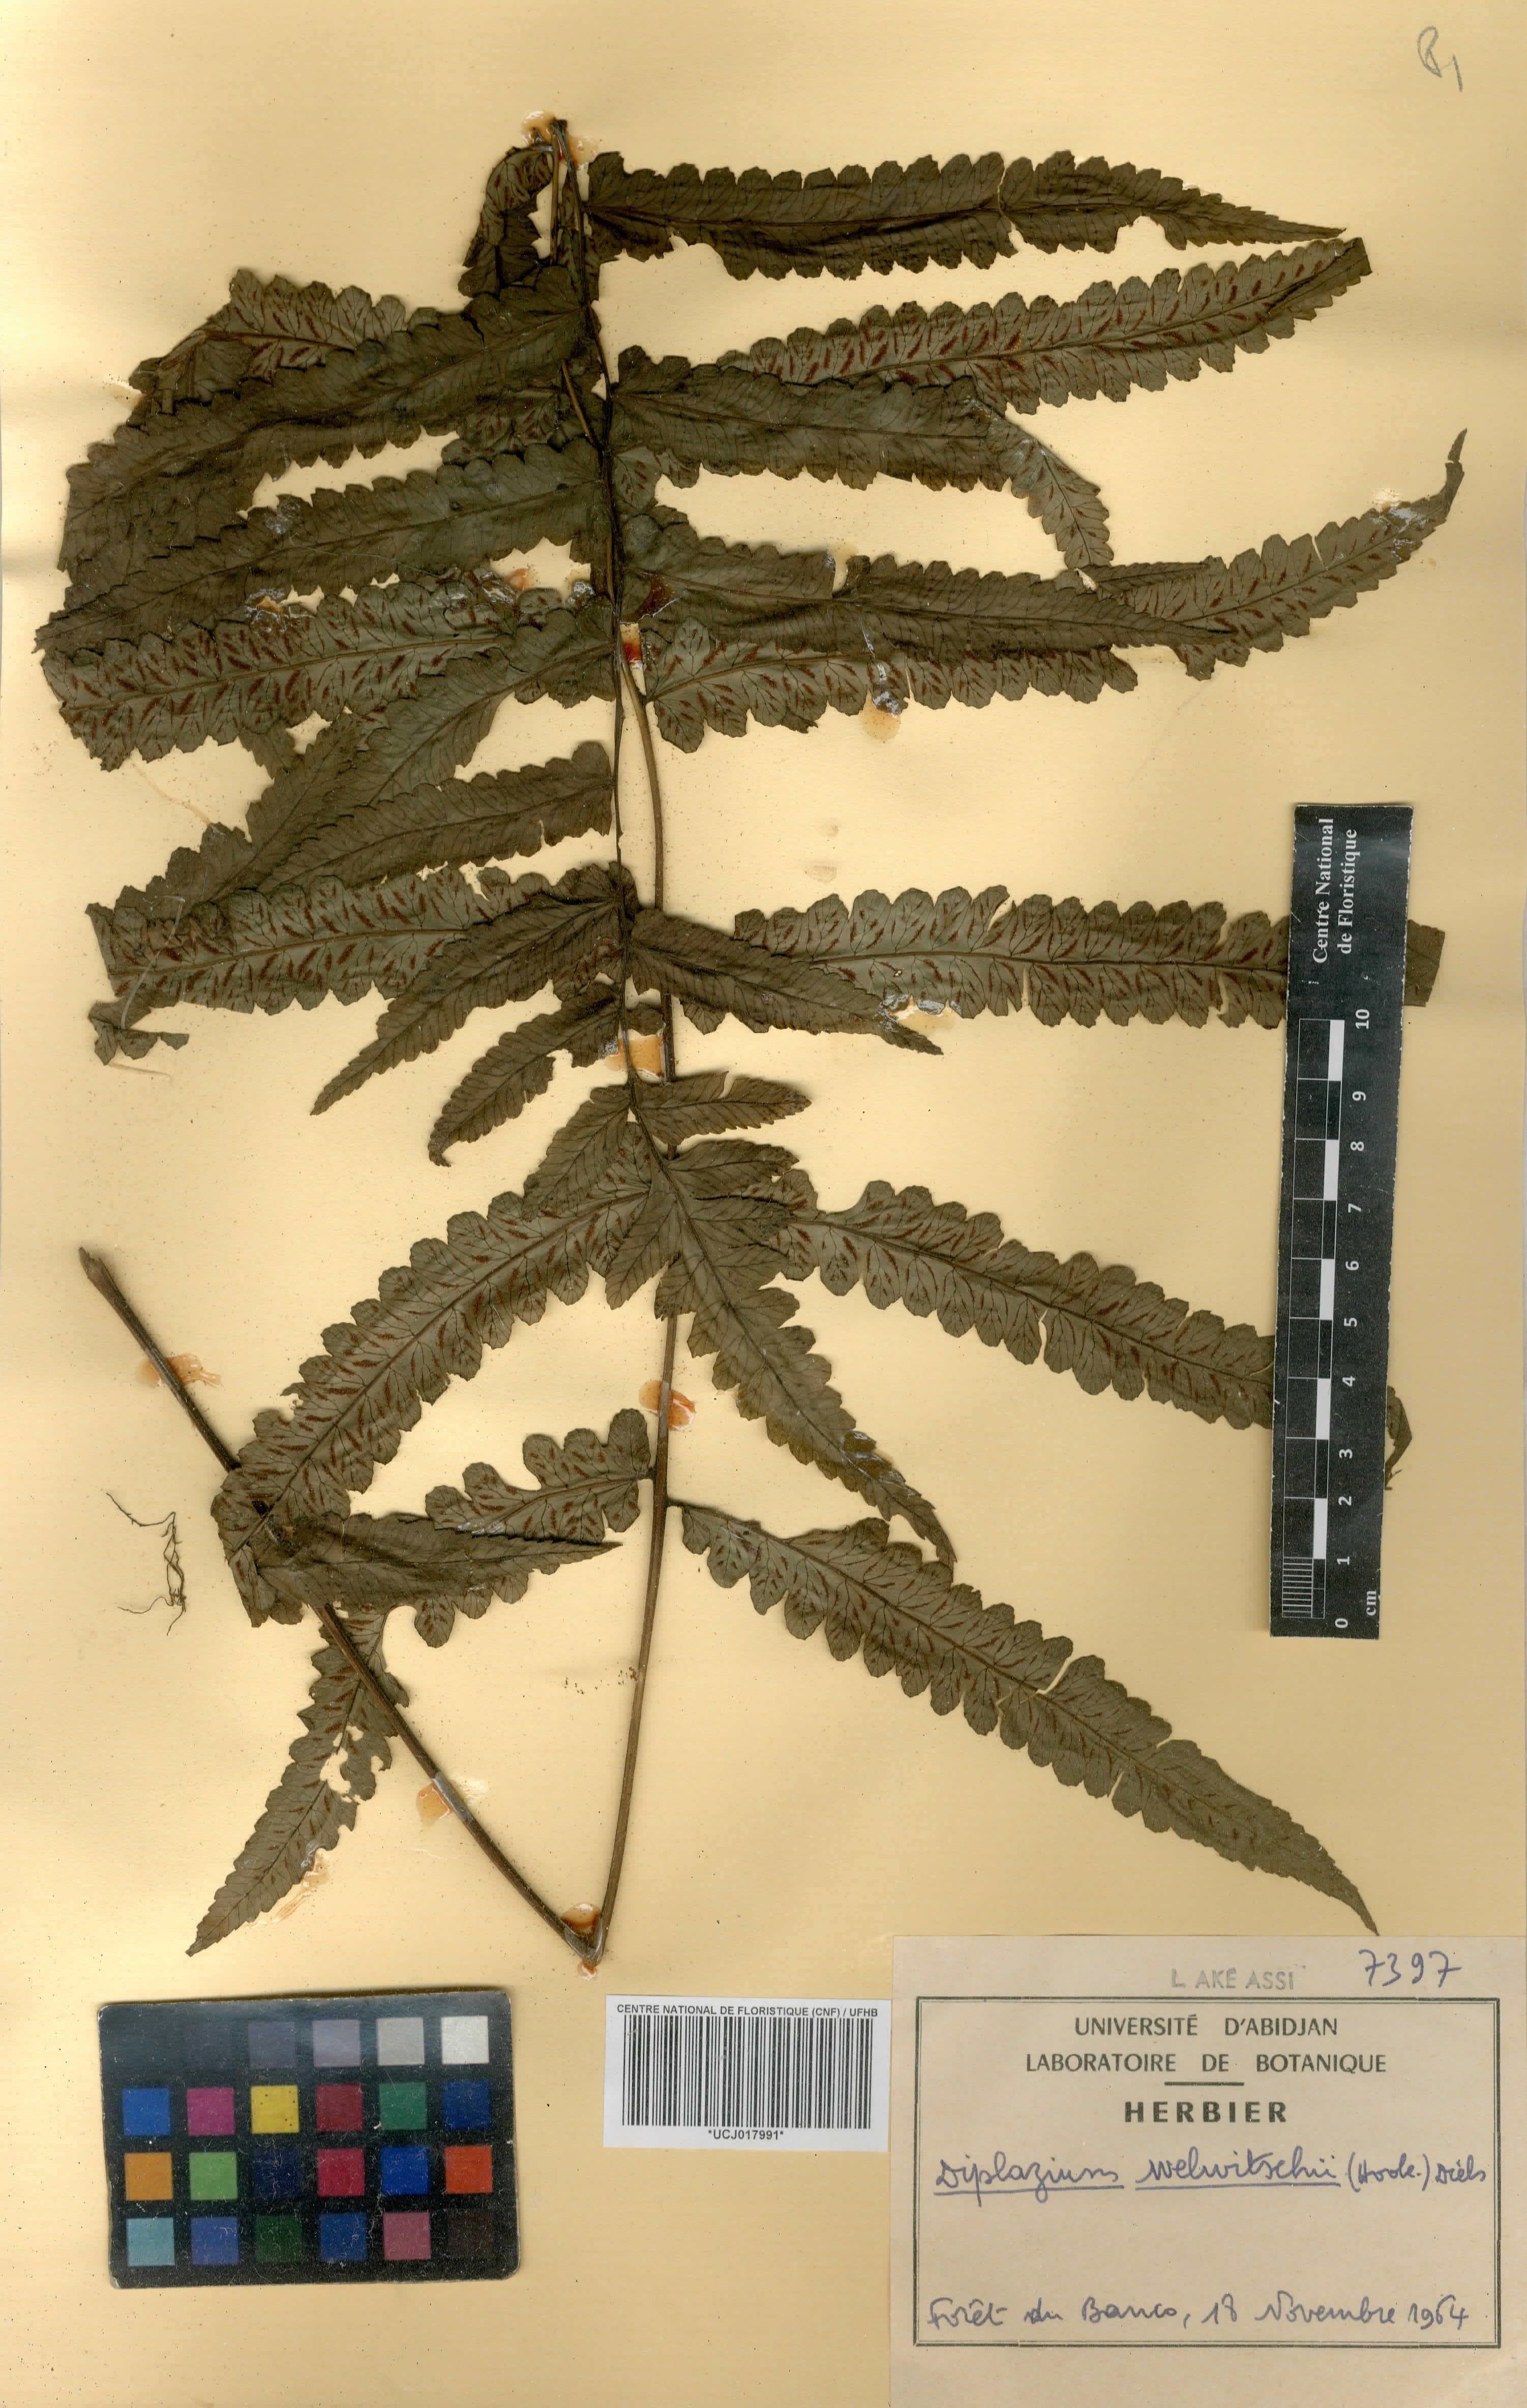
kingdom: Plantae
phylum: Tracheophyta
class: Polypodiopsida
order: Polypodiales
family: Athyriaceae
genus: Diplazium
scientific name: Diplazium welwitschii
